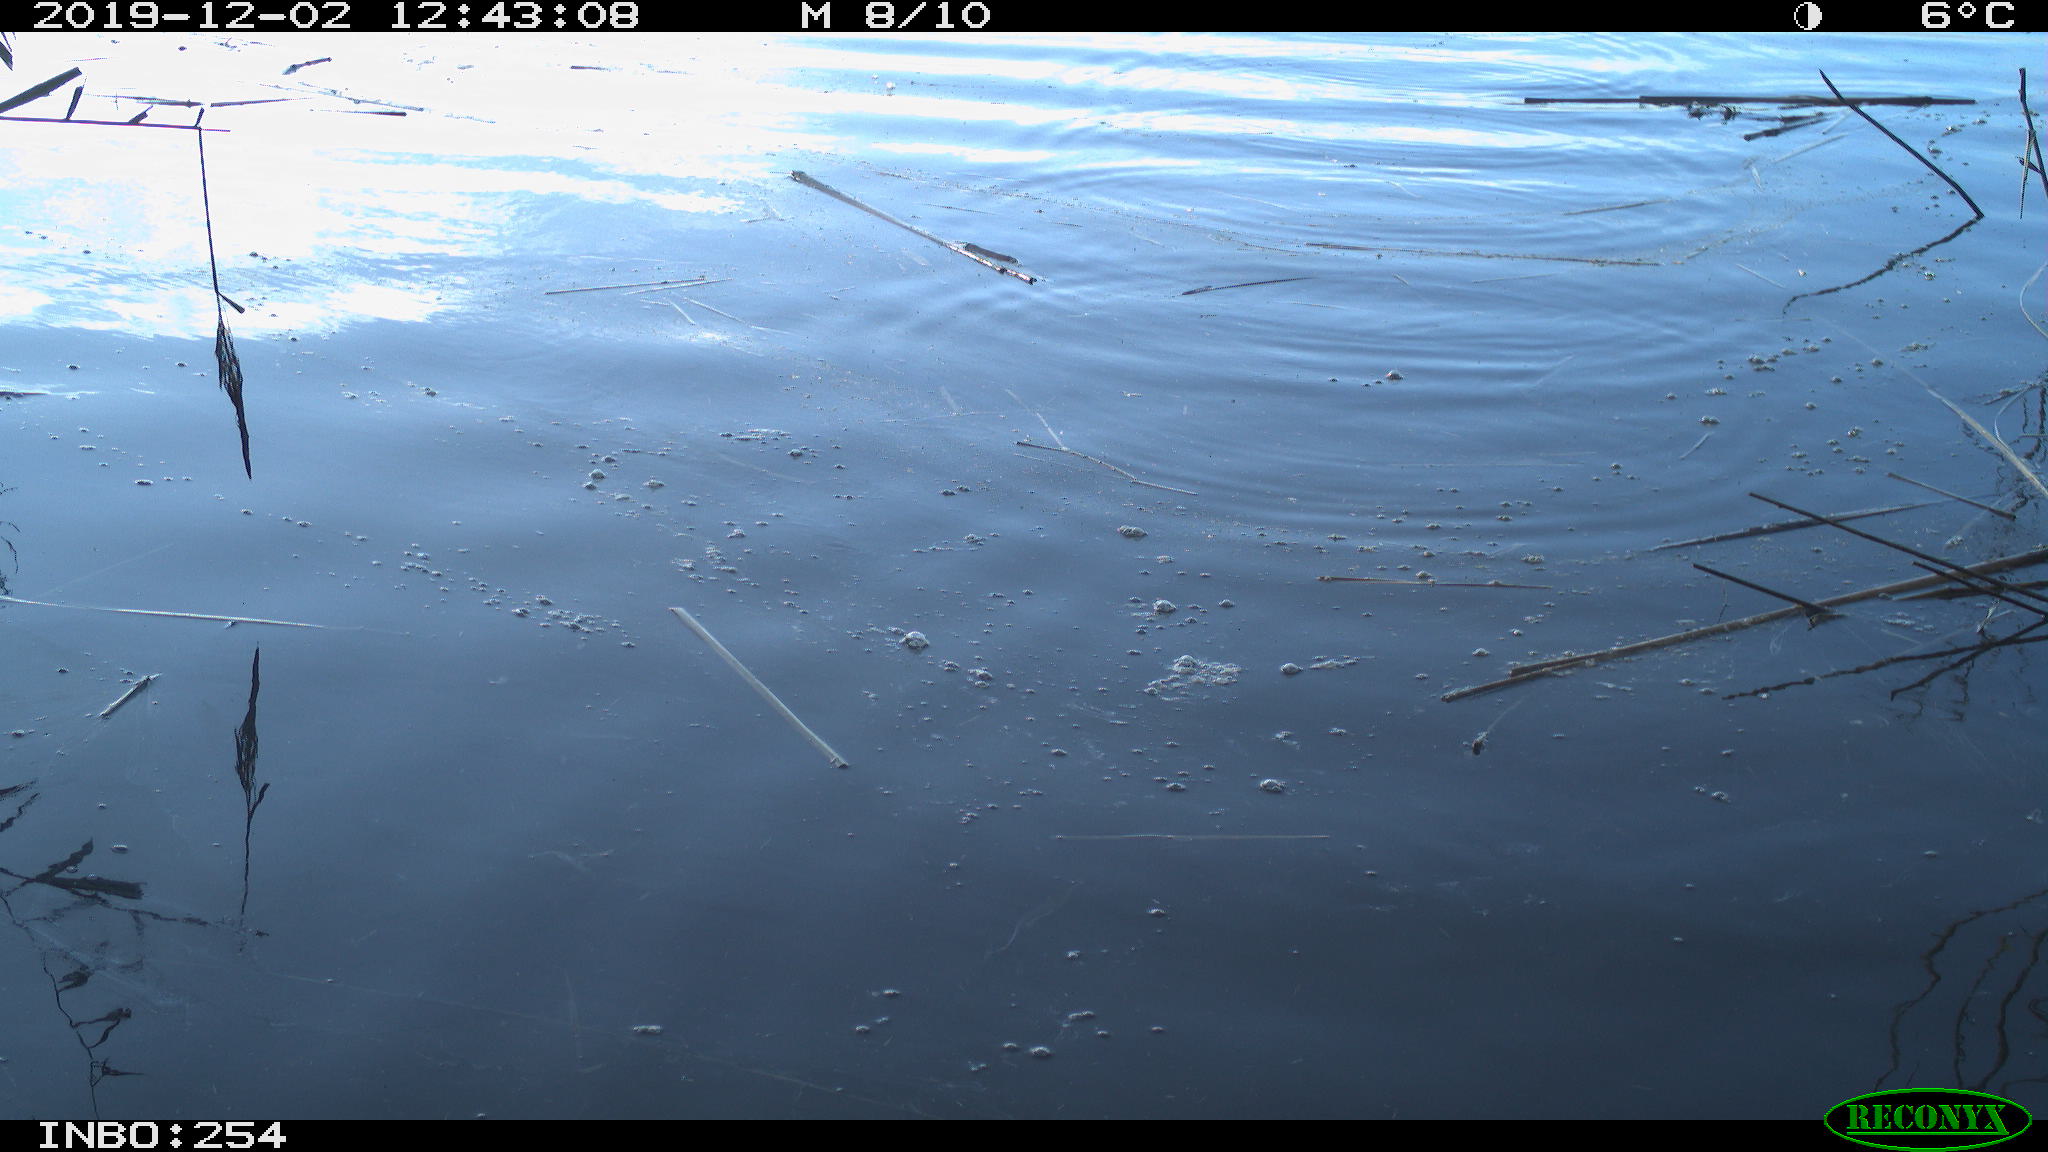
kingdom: Animalia
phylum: Chordata
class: Aves
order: Gruiformes
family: Rallidae
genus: Gallinula
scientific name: Gallinula chloropus
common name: Common moorhen
